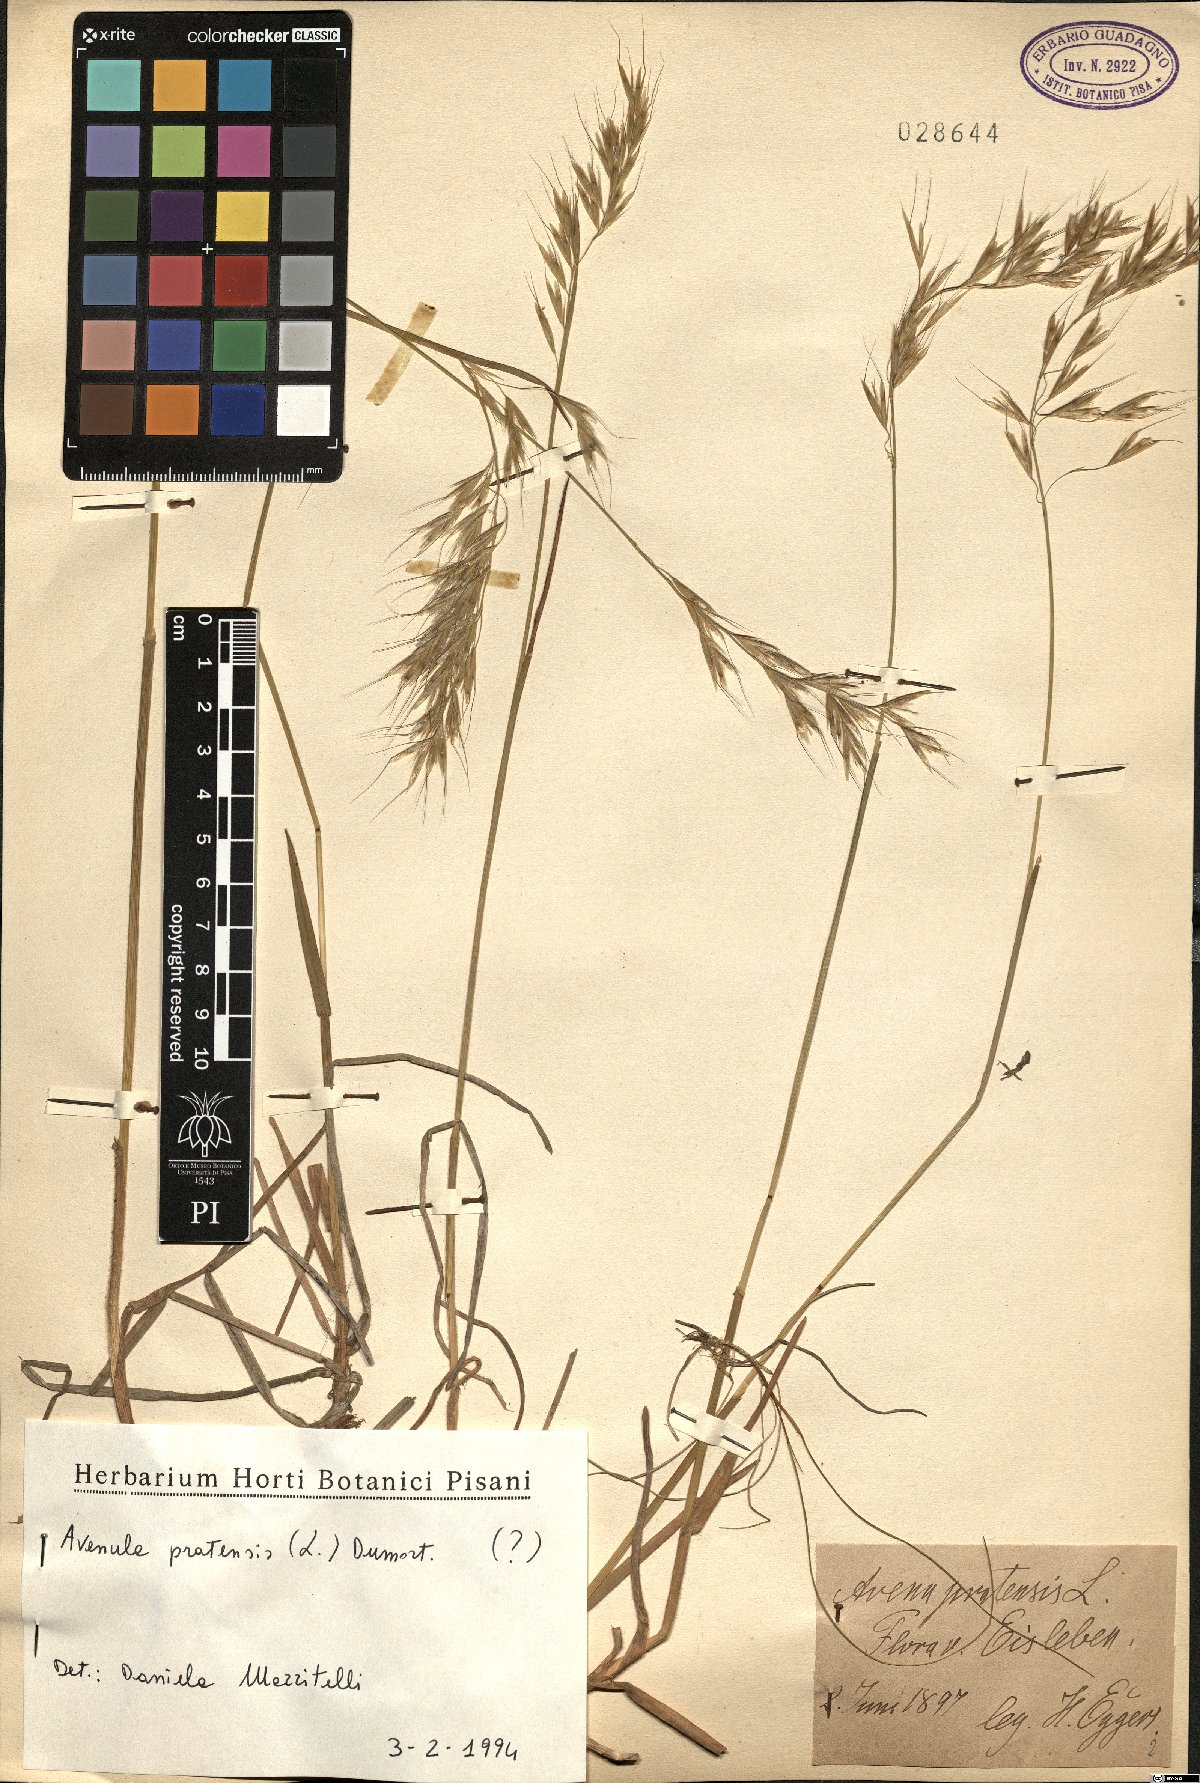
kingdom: Plantae
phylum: Tracheophyta
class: Liliopsida
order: Poales
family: Poaceae
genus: Helictochloa
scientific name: Helictochloa pratensis
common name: Meadow oat grass
